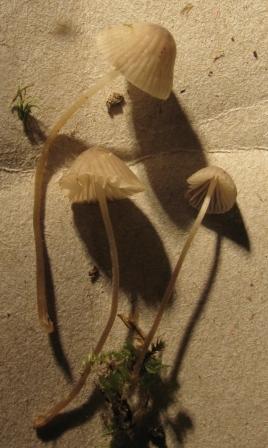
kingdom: Fungi
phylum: Basidiomycota
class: Agaricomycetes
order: Agaricales
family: Tricholomataceae
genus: Mycenella
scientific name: Mycenella lasiosperma
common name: stjernesporet dughat
